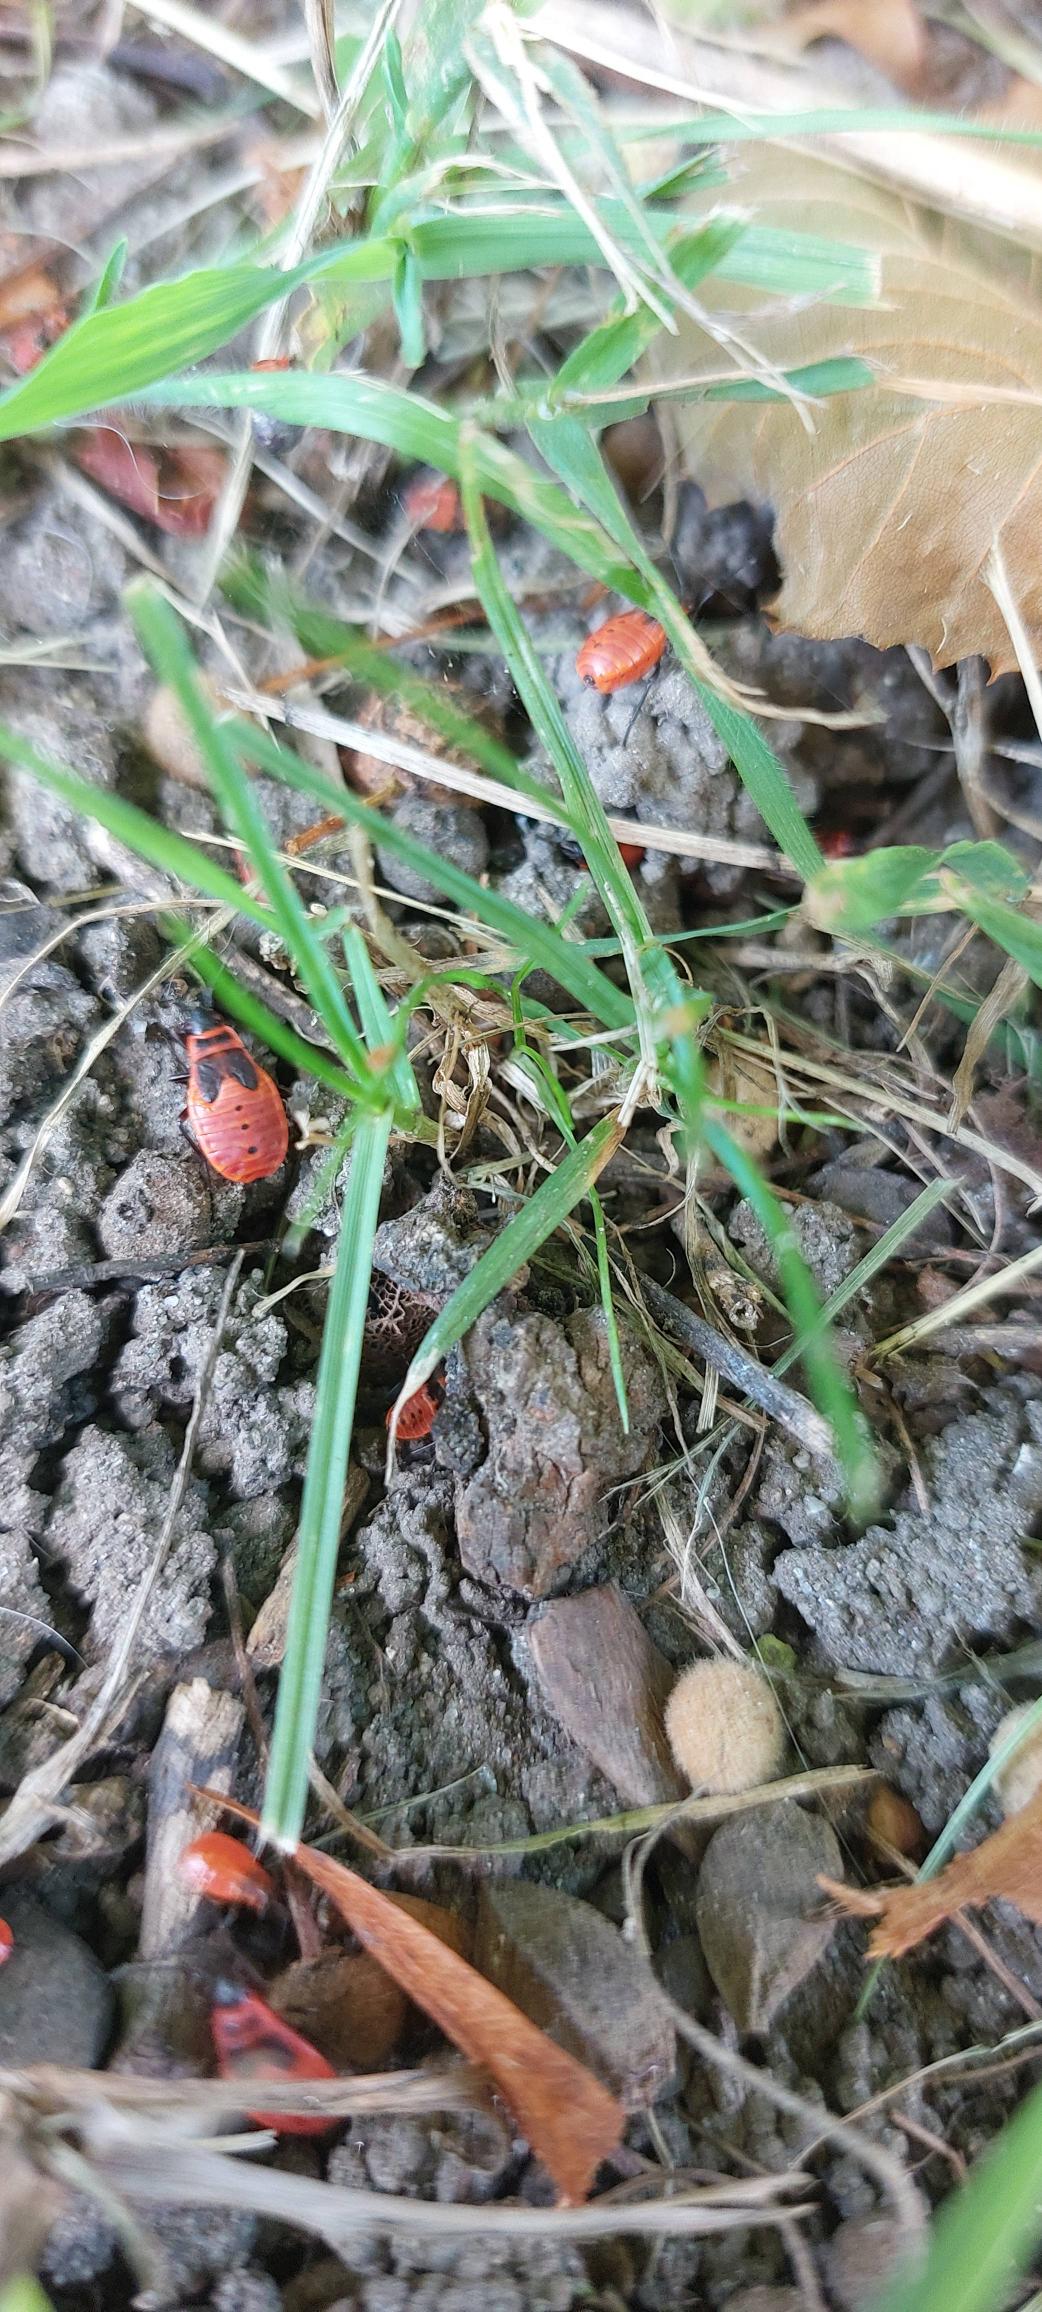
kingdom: Animalia
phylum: Arthropoda
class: Insecta
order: Hemiptera
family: Pyrrhocoridae
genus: Pyrrhocoris
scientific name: Pyrrhocoris apterus
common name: Ildtæge
